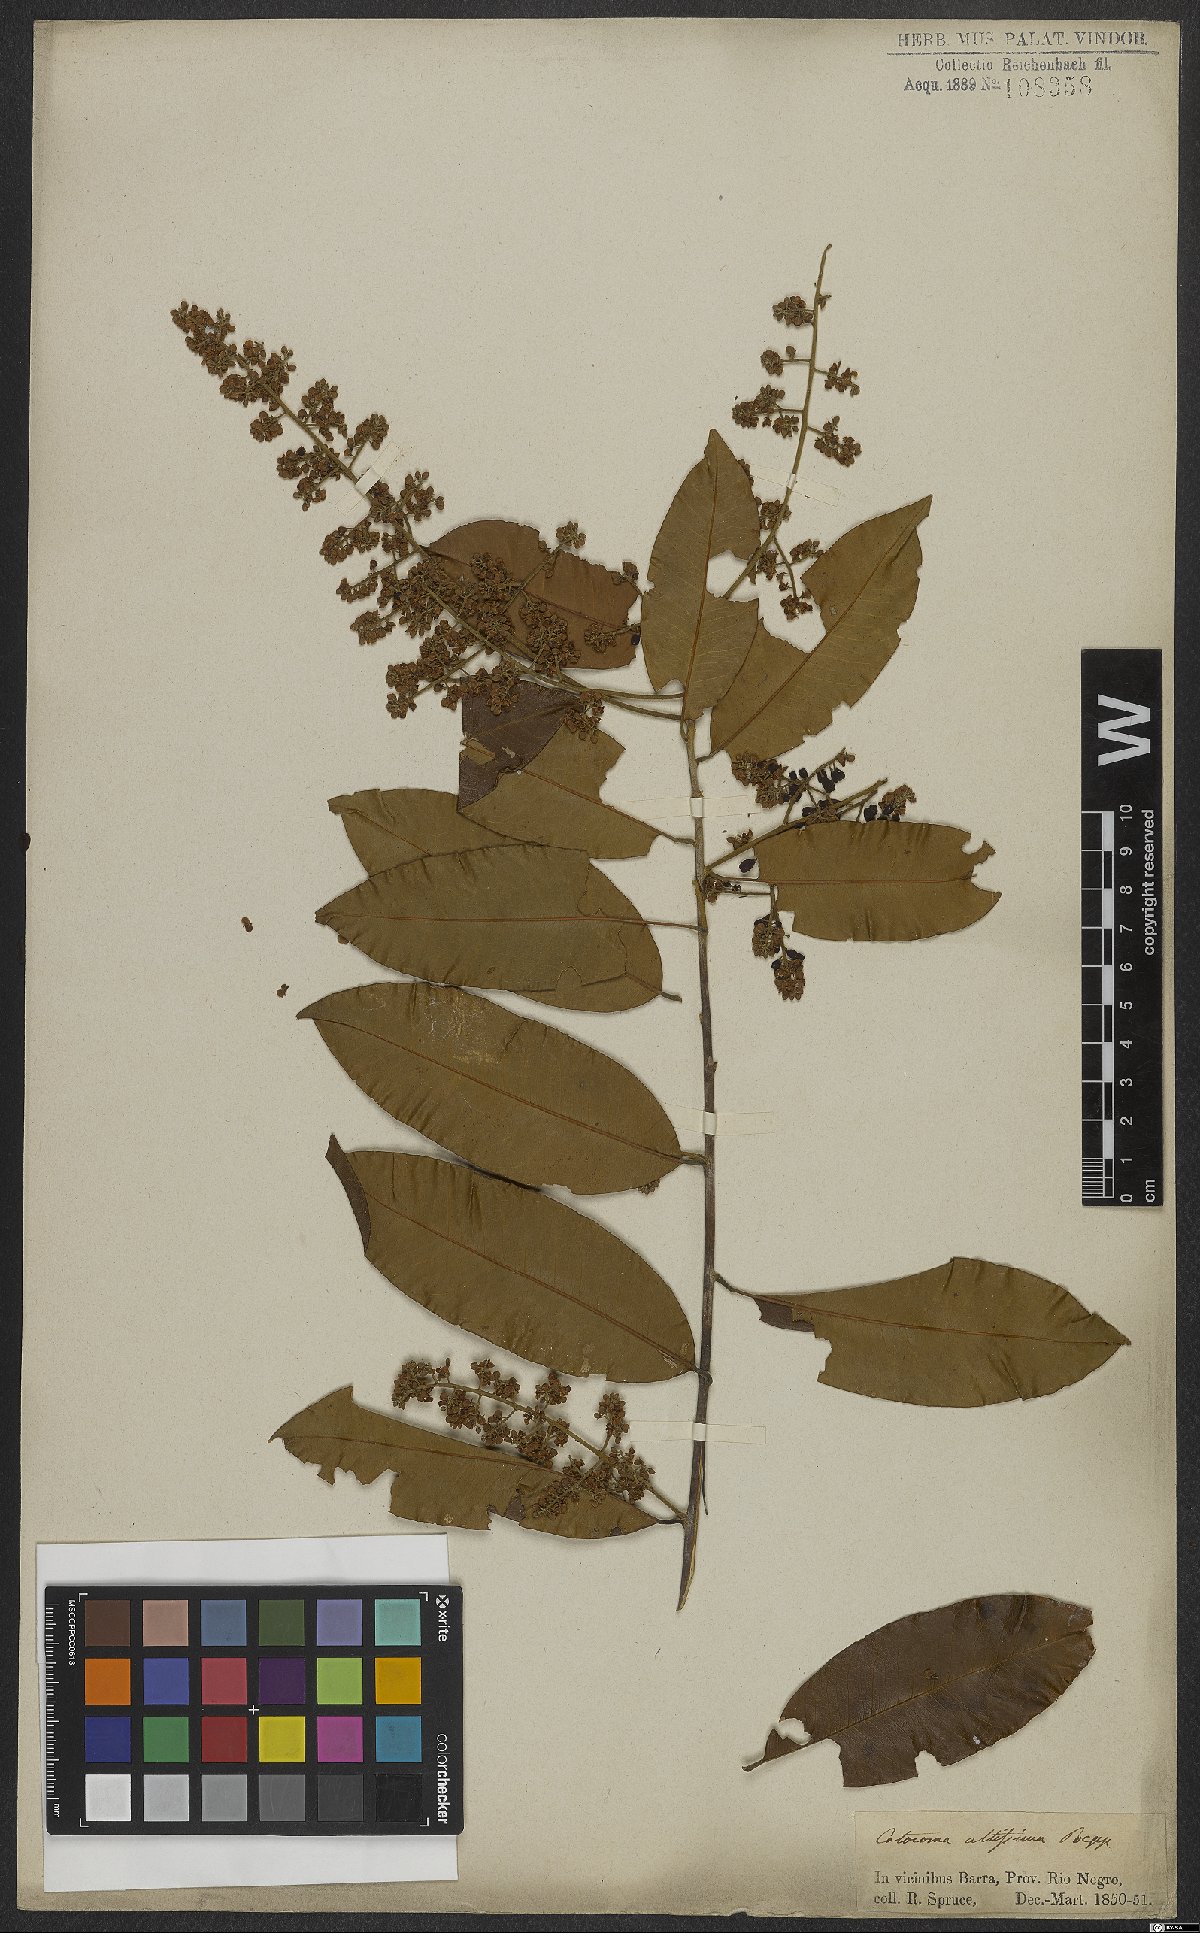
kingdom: Plantae
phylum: Tracheophyta
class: Magnoliopsida
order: Fabales
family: Polygalaceae
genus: Bredemeyera
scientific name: Bredemeyera divaricata
